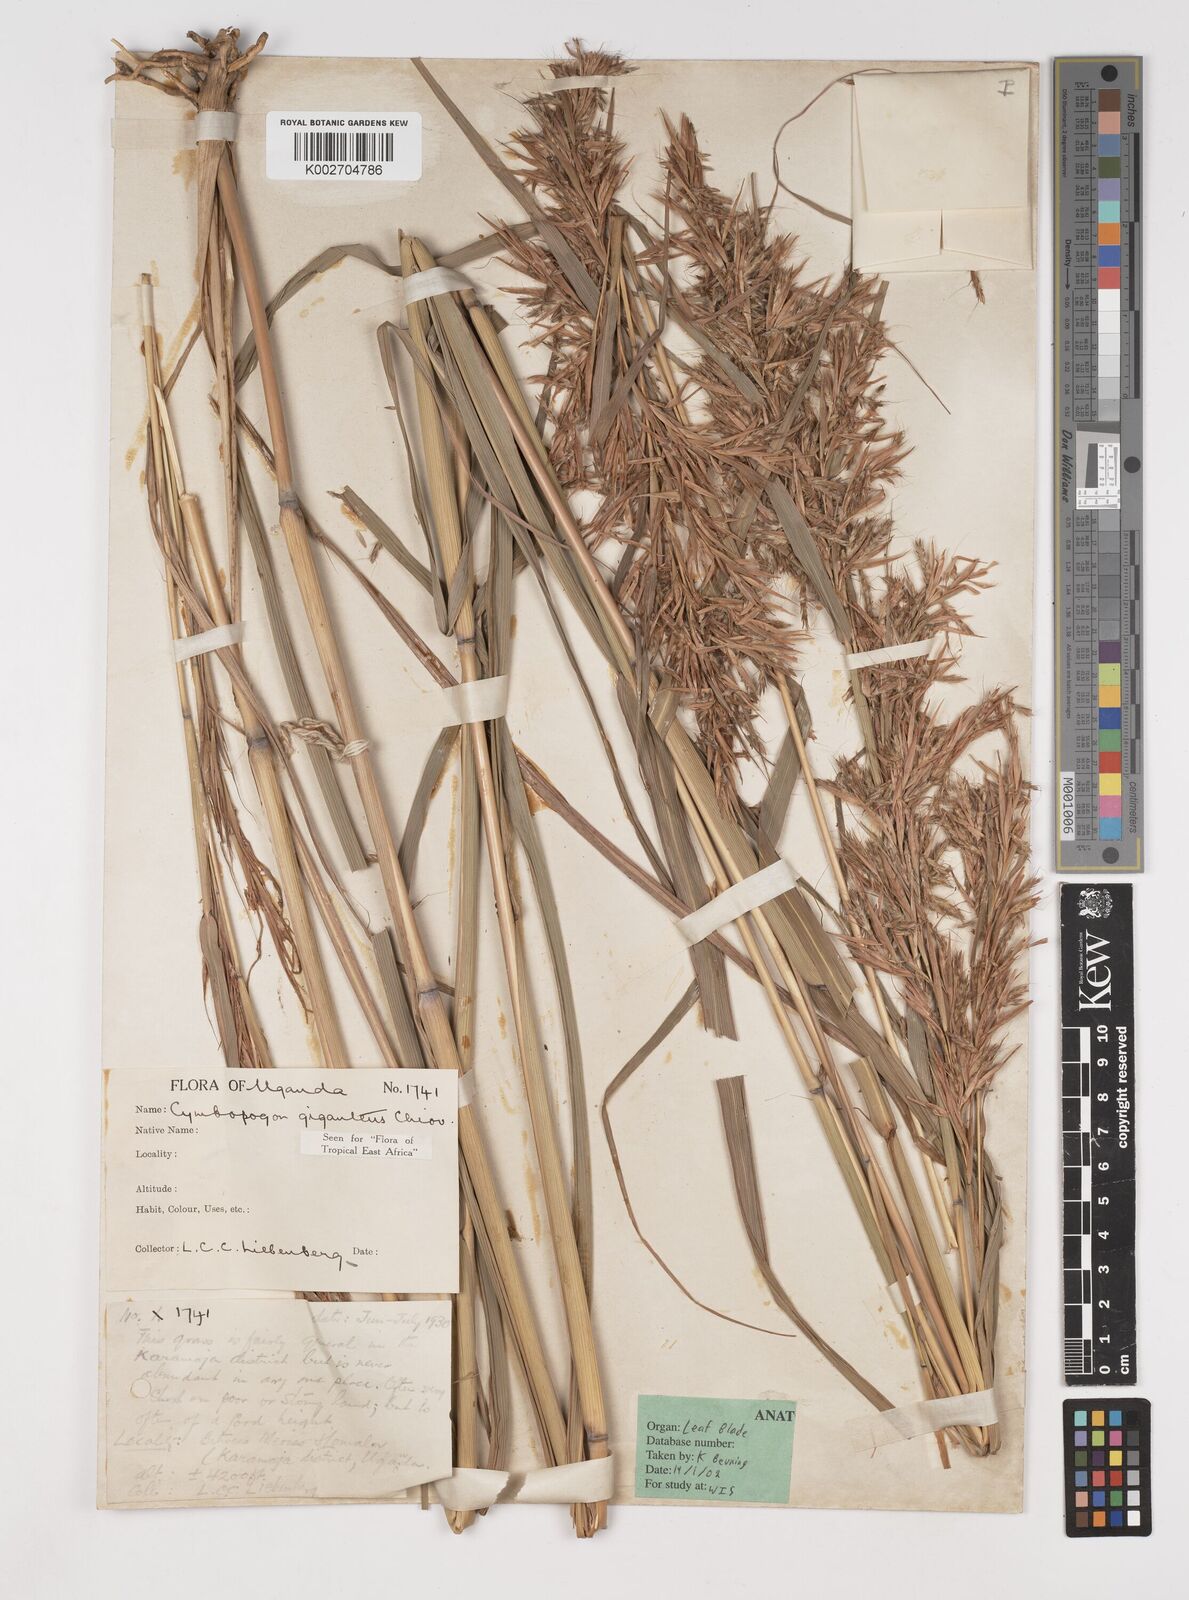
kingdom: Plantae
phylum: Tracheophyta
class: Liliopsida
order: Poales
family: Poaceae
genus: Cymbopogon
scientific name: Cymbopogon giganteus
